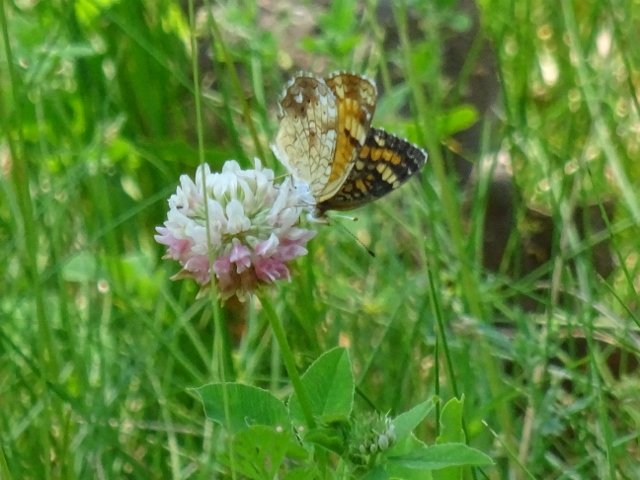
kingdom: Animalia
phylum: Arthropoda
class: Insecta
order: Lepidoptera
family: Nymphalidae
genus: Phyciodes
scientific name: Phyciodes tharos
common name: Pearl Crescent
